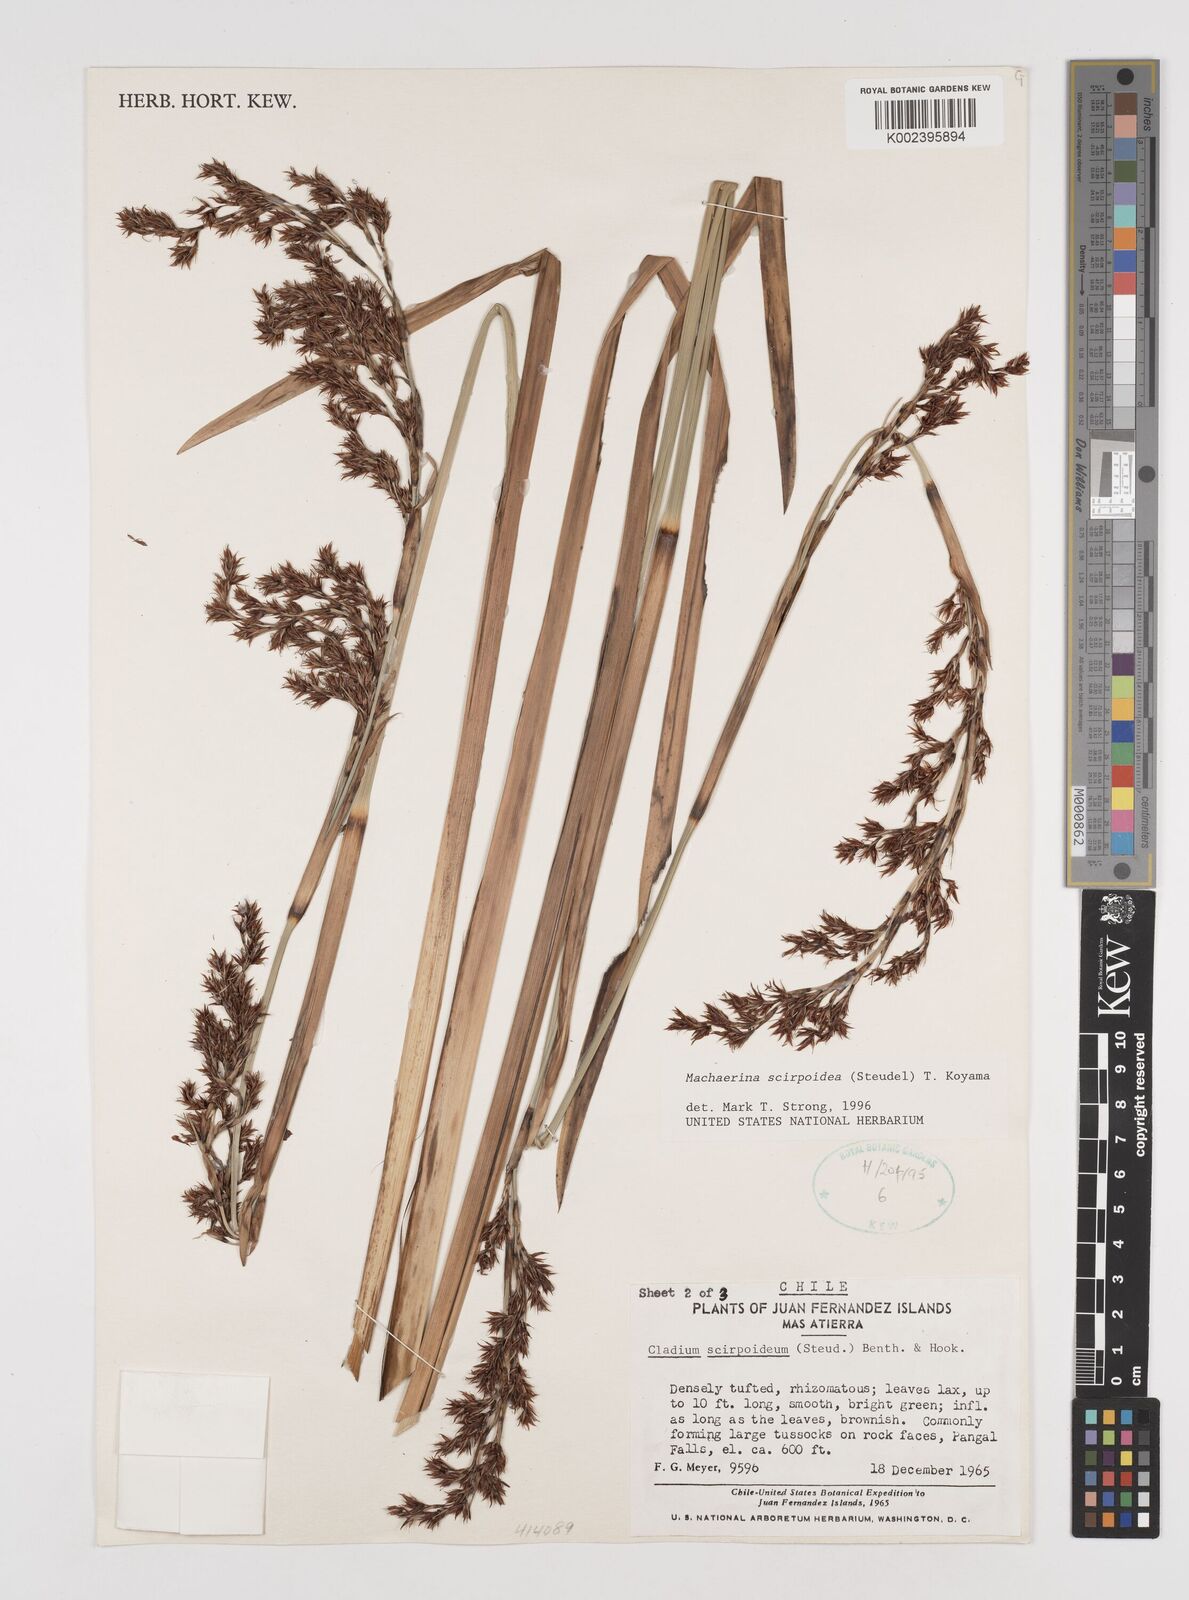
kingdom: Plantae
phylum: Tracheophyta
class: Liliopsida
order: Poales
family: Cyperaceae
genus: Machaerina
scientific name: Machaerina scirpoidea
